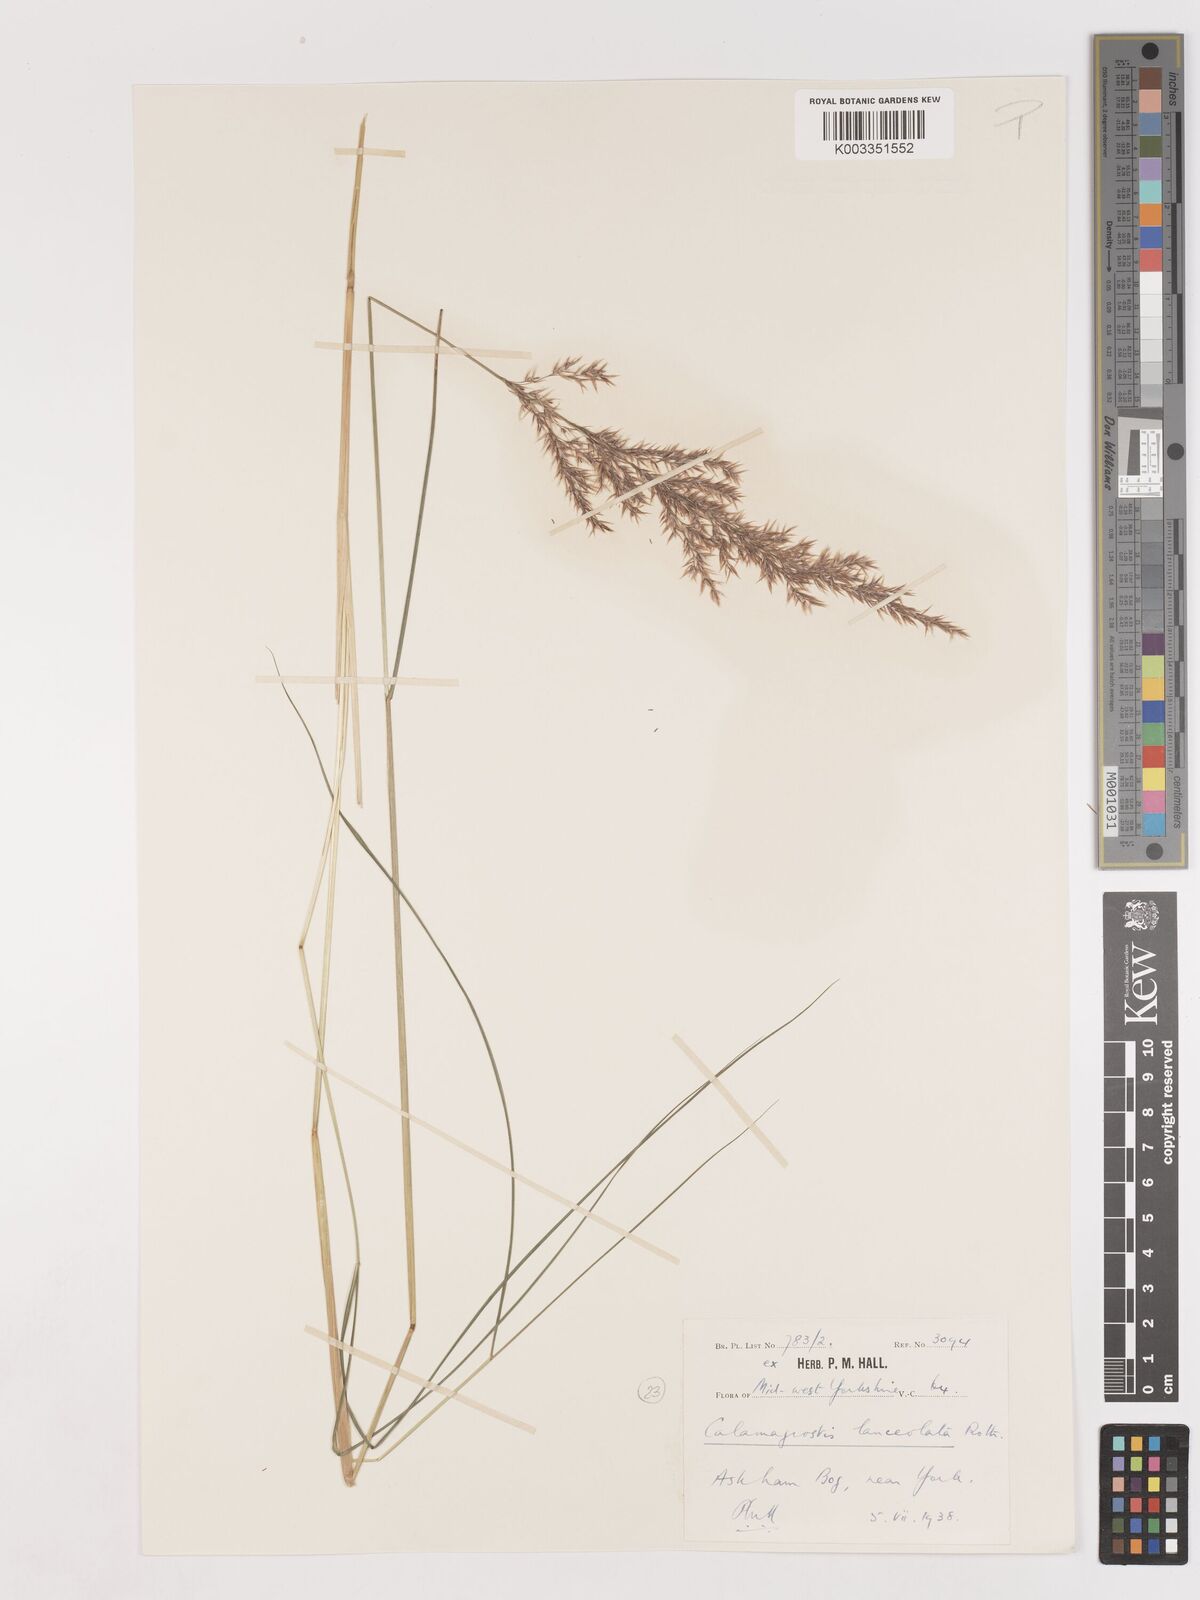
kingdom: Plantae
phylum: Tracheophyta
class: Liliopsida
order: Poales
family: Poaceae
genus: Calamagrostis
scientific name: Calamagrostis canescens
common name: Purple small-reed
